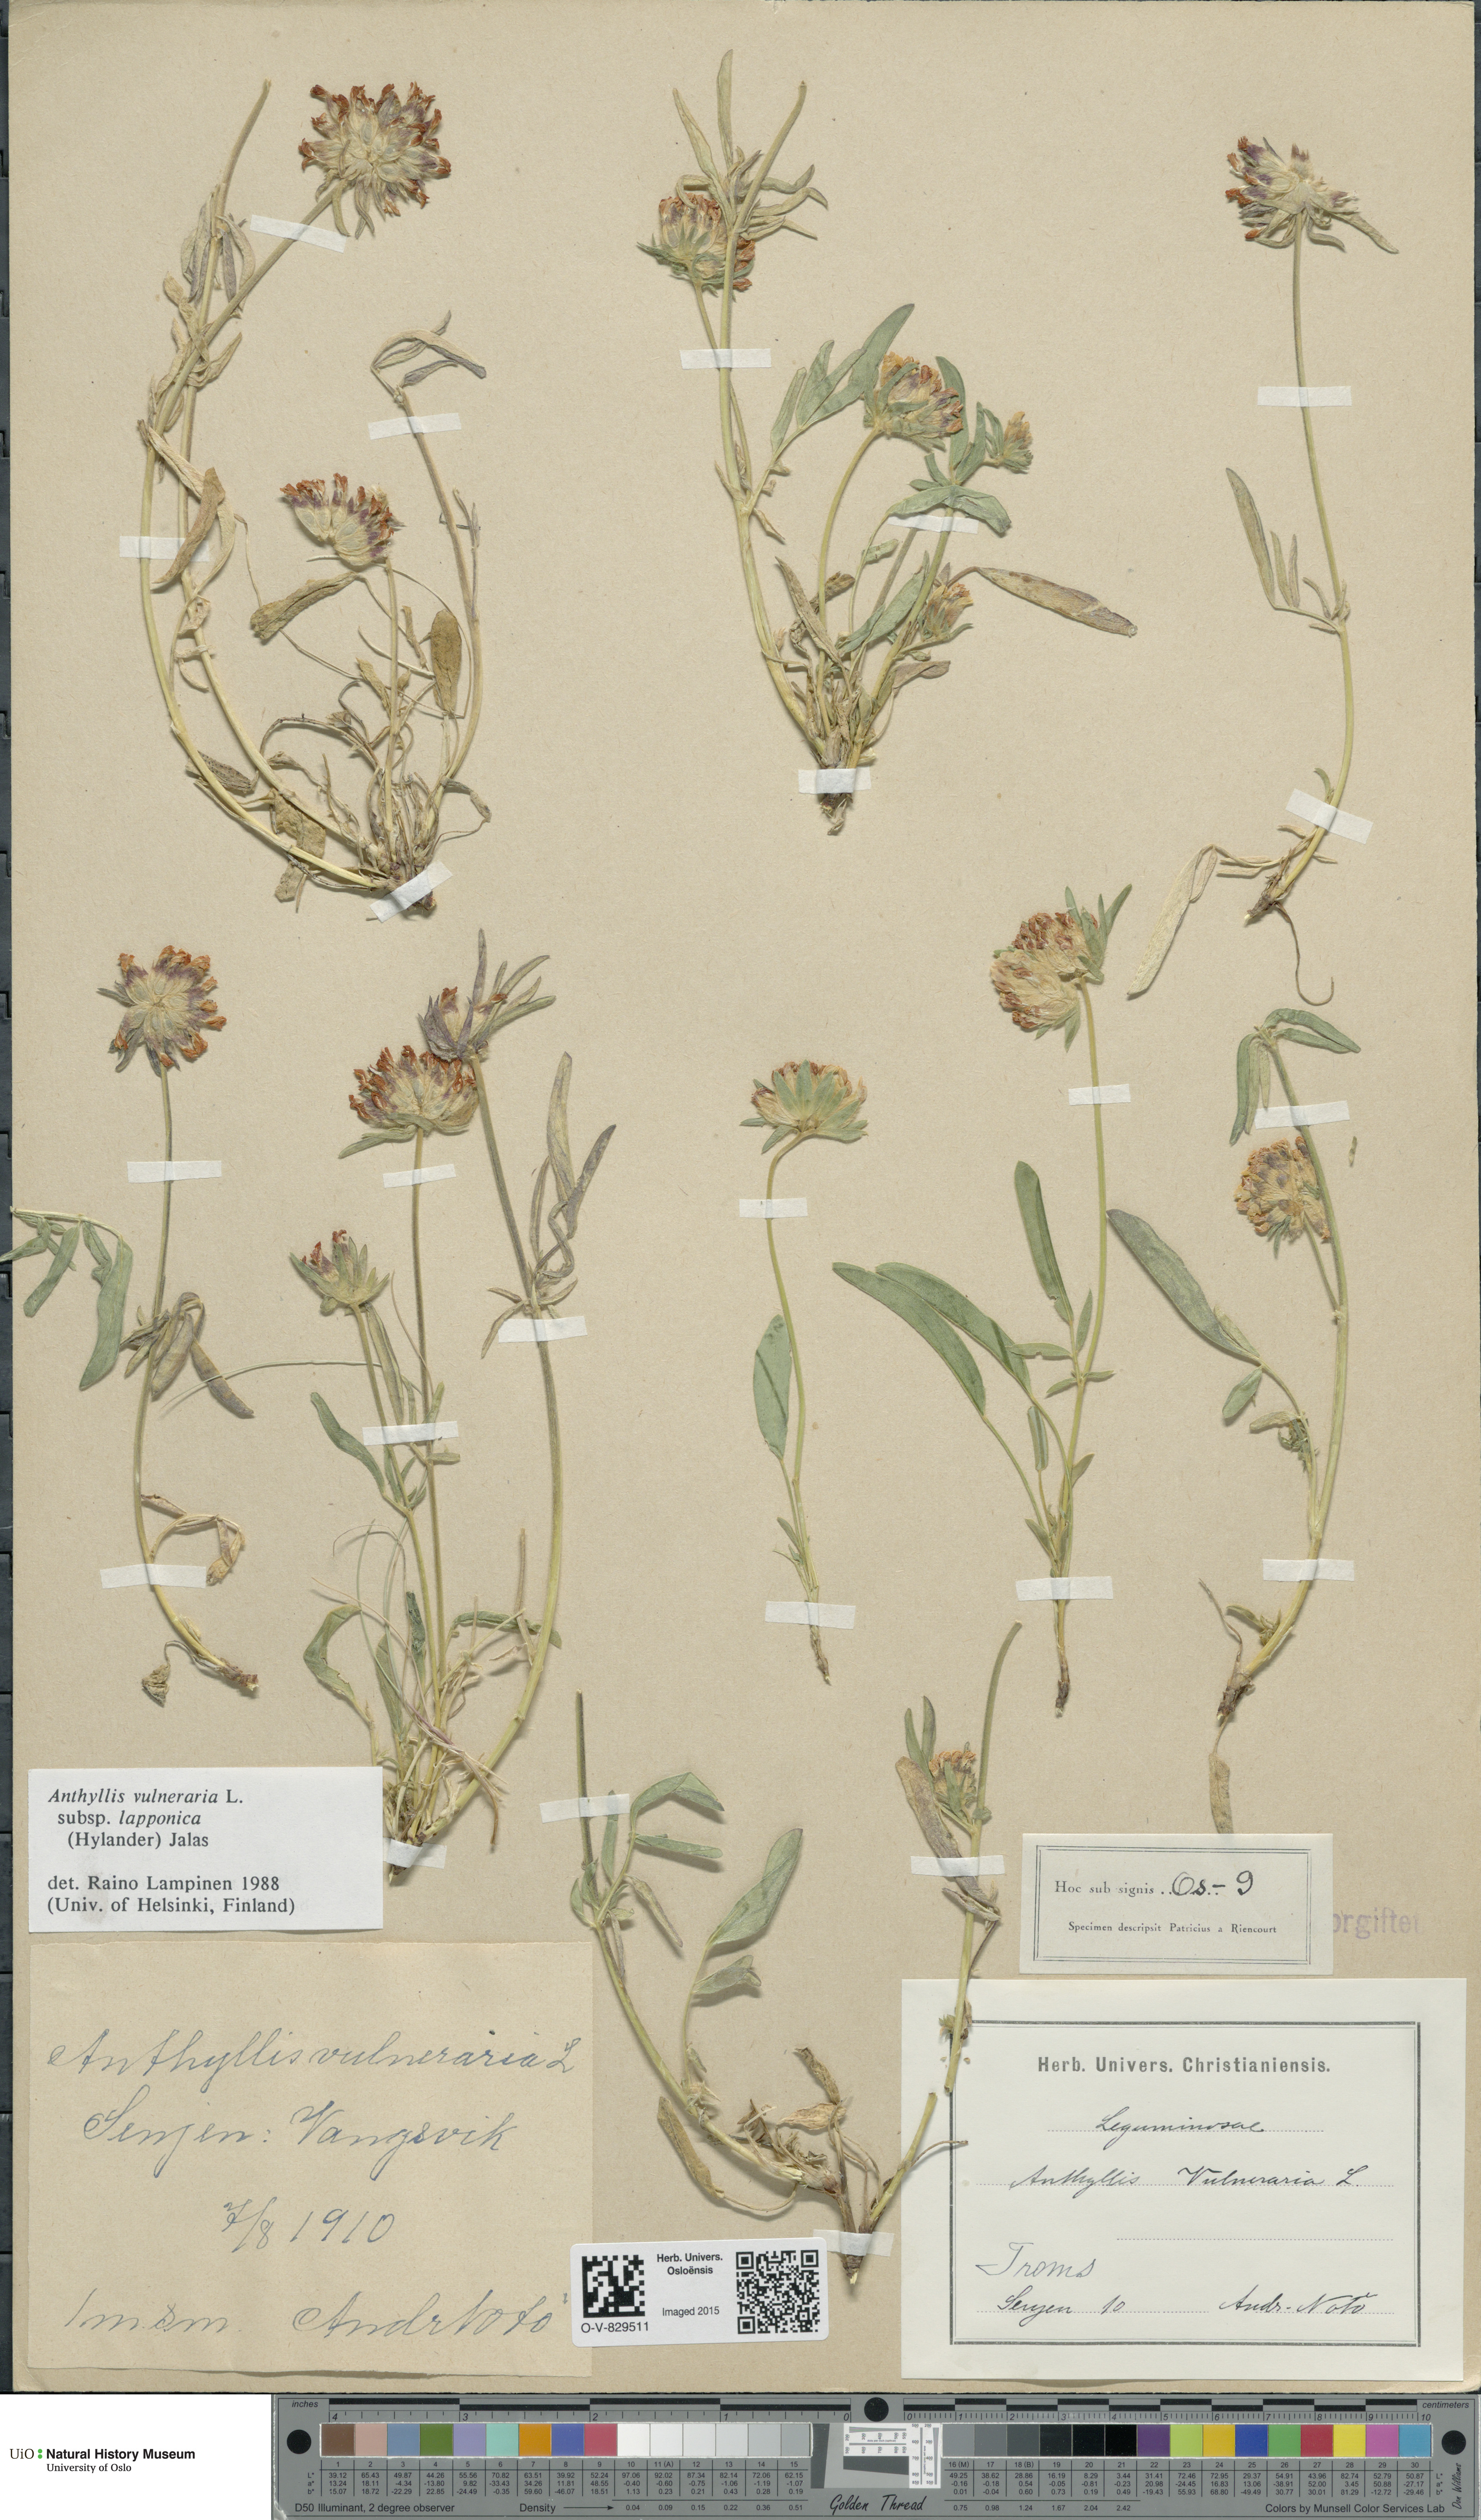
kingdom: Plantae
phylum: Tracheophyta
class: Magnoliopsida
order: Fabales
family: Fabaceae
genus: Anthyllis
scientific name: Anthyllis vulneraria
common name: Kidney vetch
